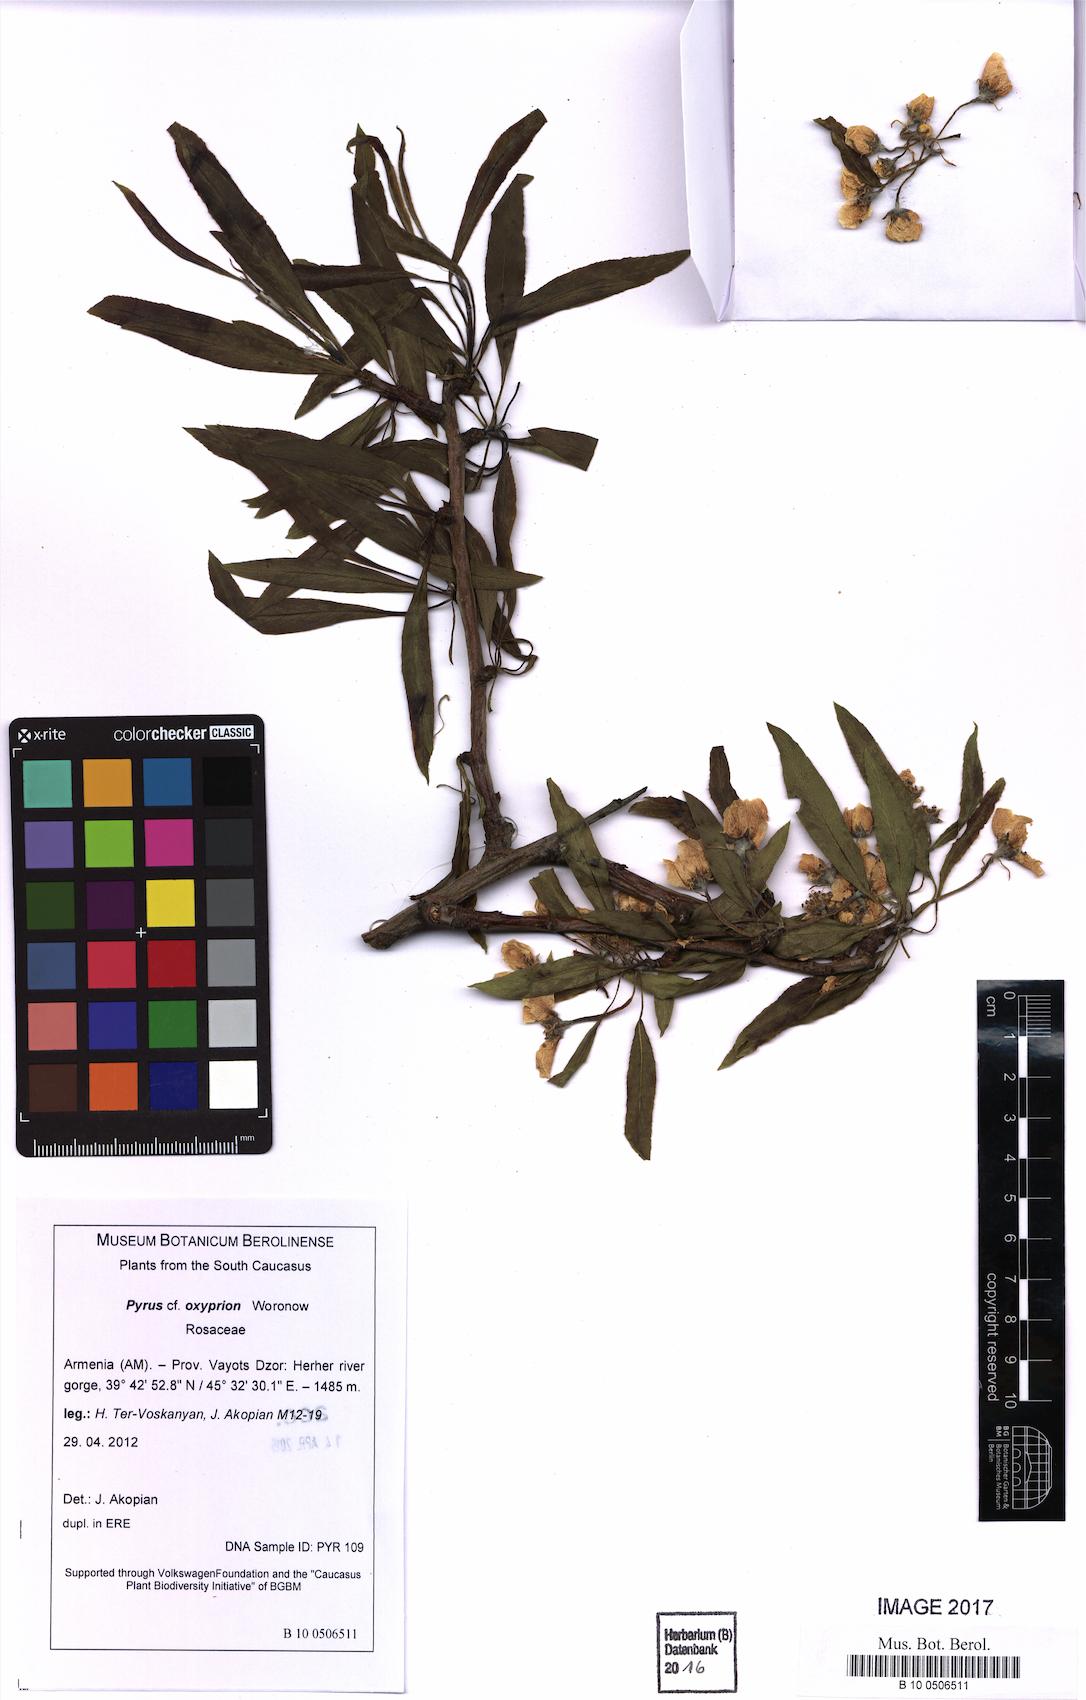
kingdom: Plantae
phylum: Tracheophyta
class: Magnoliopsida
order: Rosales
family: Rosaceae
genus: Pyrus
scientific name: Pyrus oxyprion
